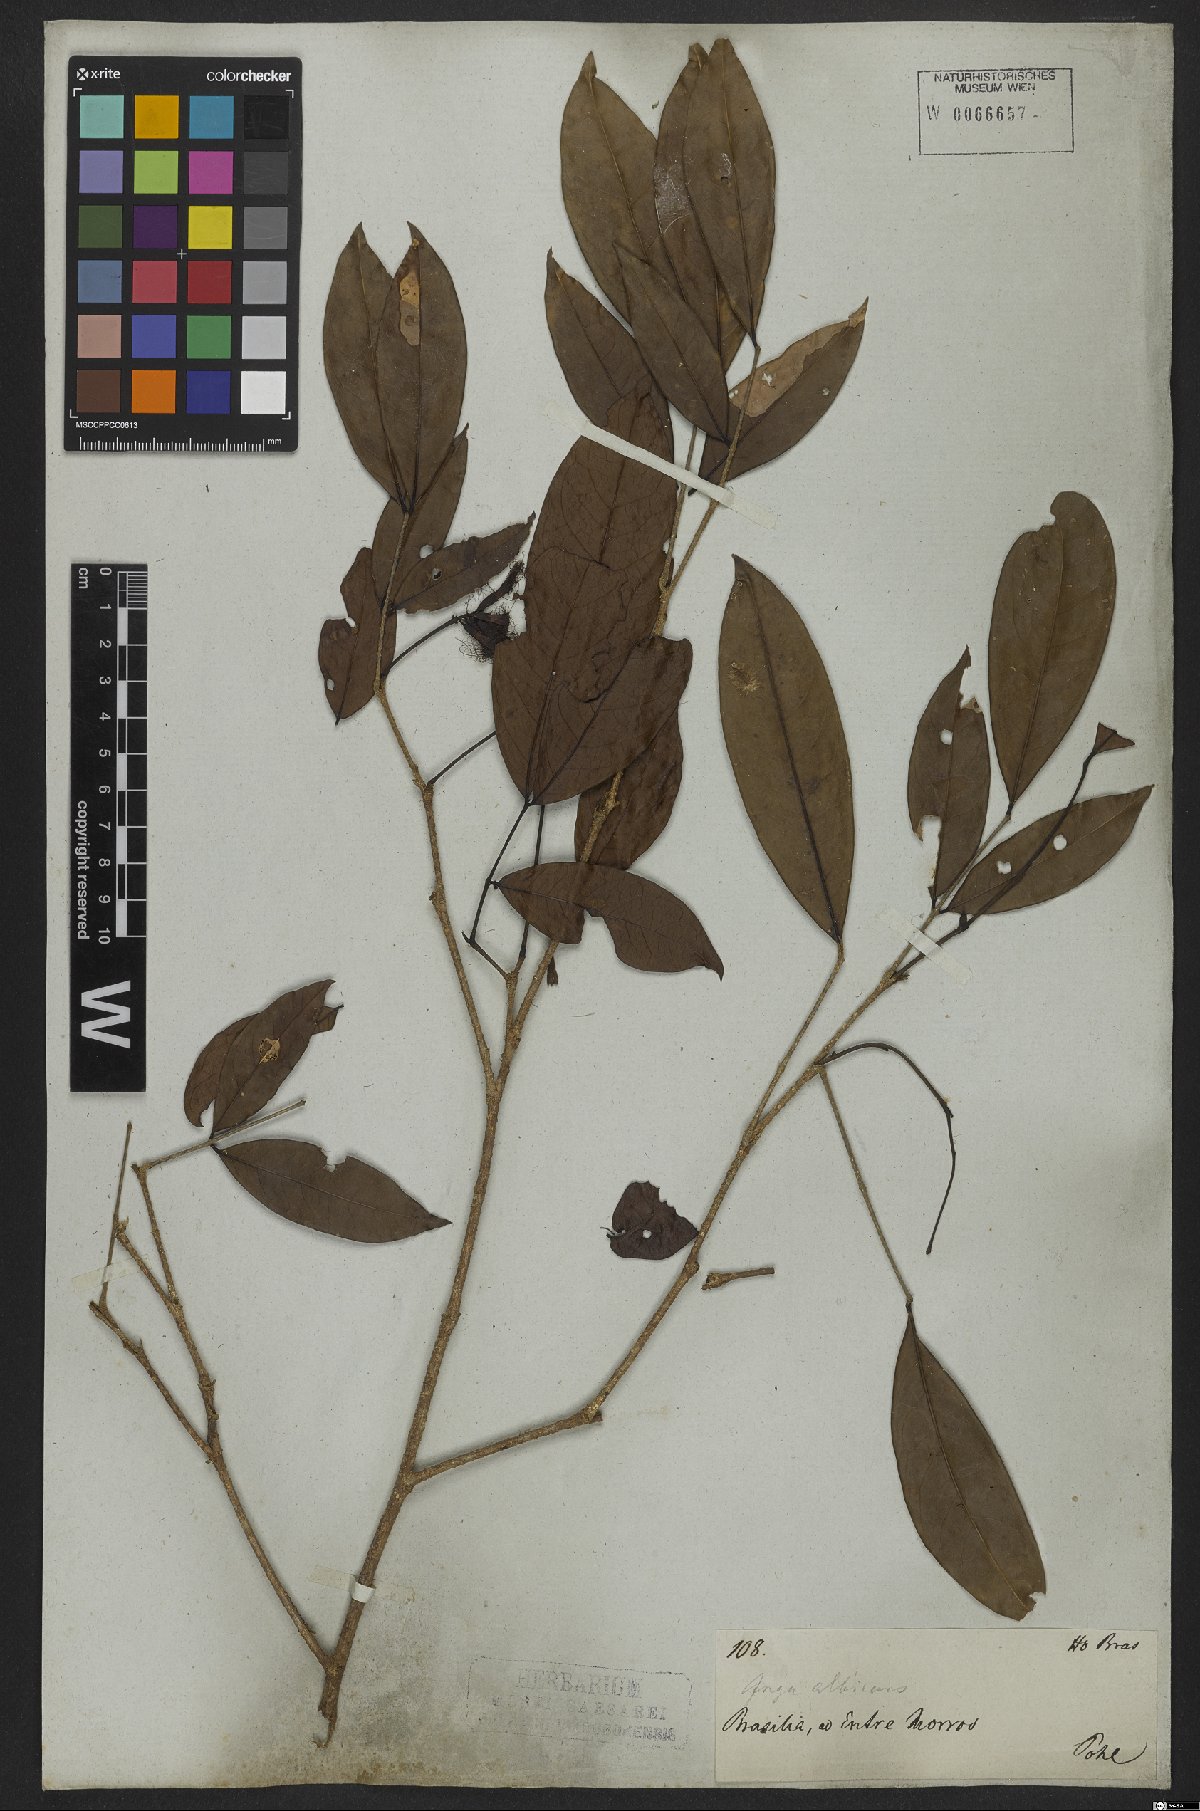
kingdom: Plantae
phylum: Tracheophyta
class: Magnoliopsida
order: Fabales
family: Fabaceae
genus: Inga
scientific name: Inga capitata
